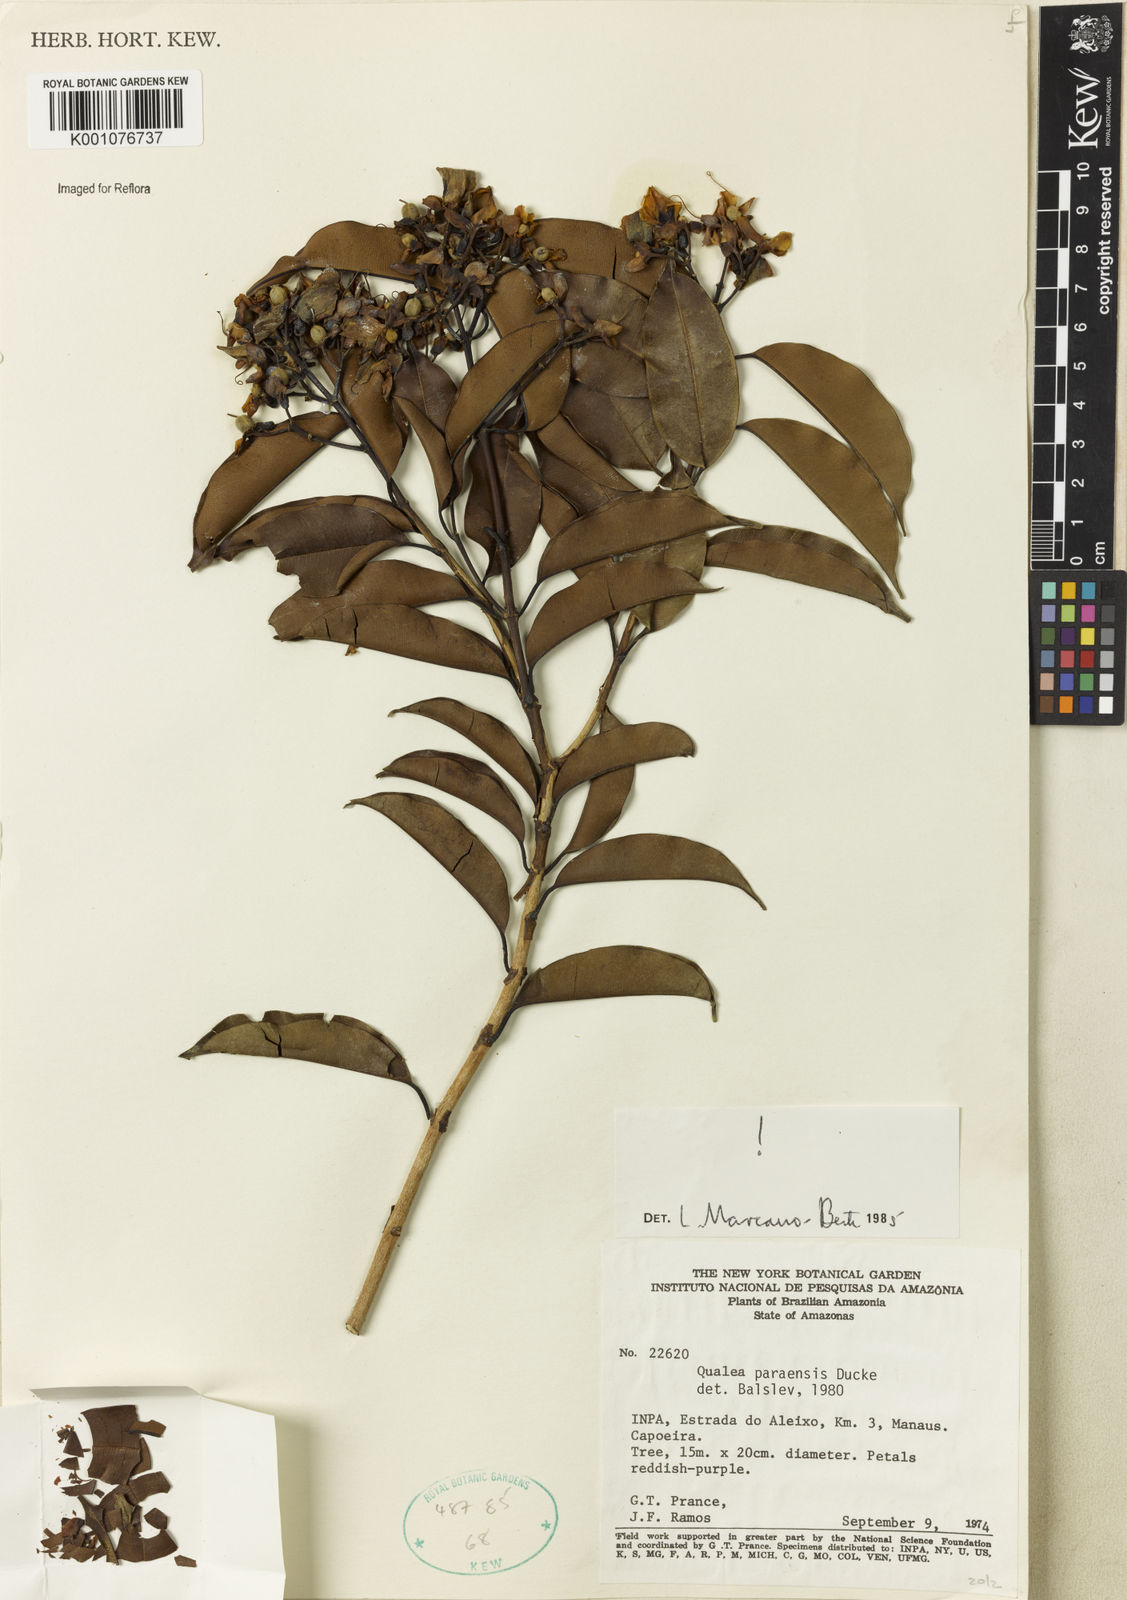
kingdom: Plantae
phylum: Tracheophyta
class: Magnoliopsida
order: Myrtales
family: Vochysiaceae
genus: Qualea
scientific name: Qualea paraensis
